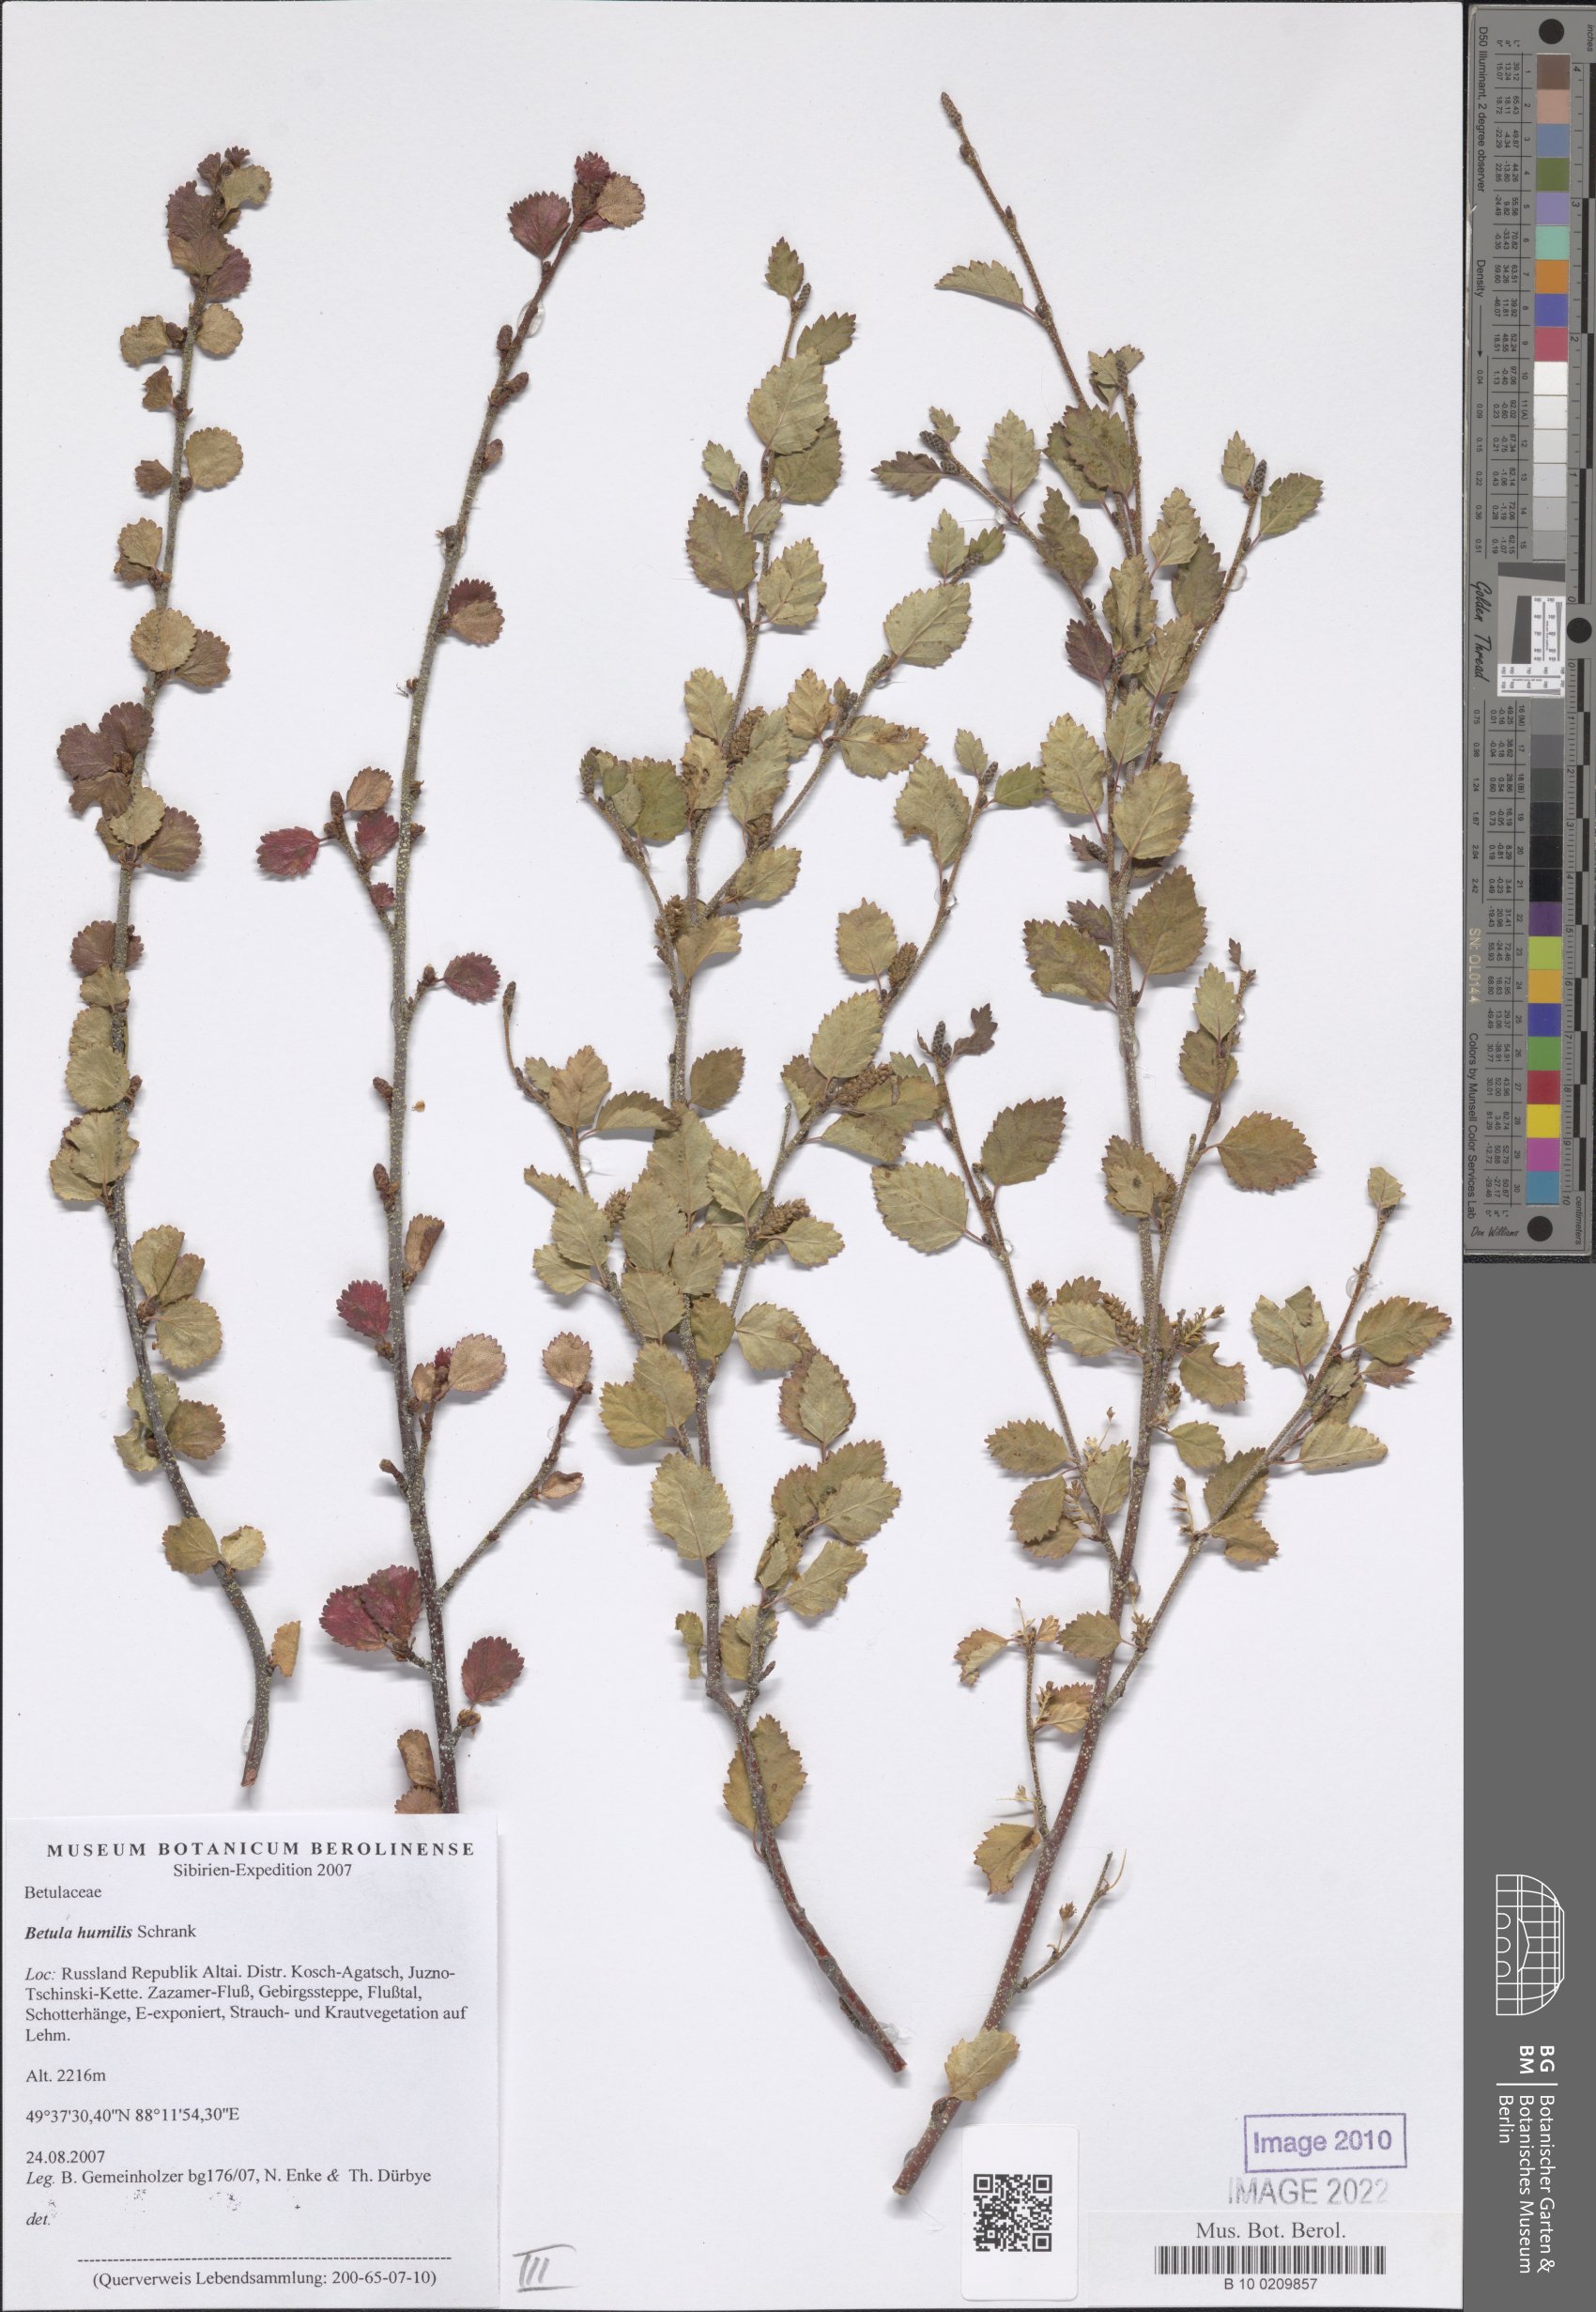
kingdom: Plantae
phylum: Tracheophyta
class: Magnoliopsida
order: Fagales
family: Betulaceae
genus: Betula
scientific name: Betula humilis
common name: Shrubby birch
